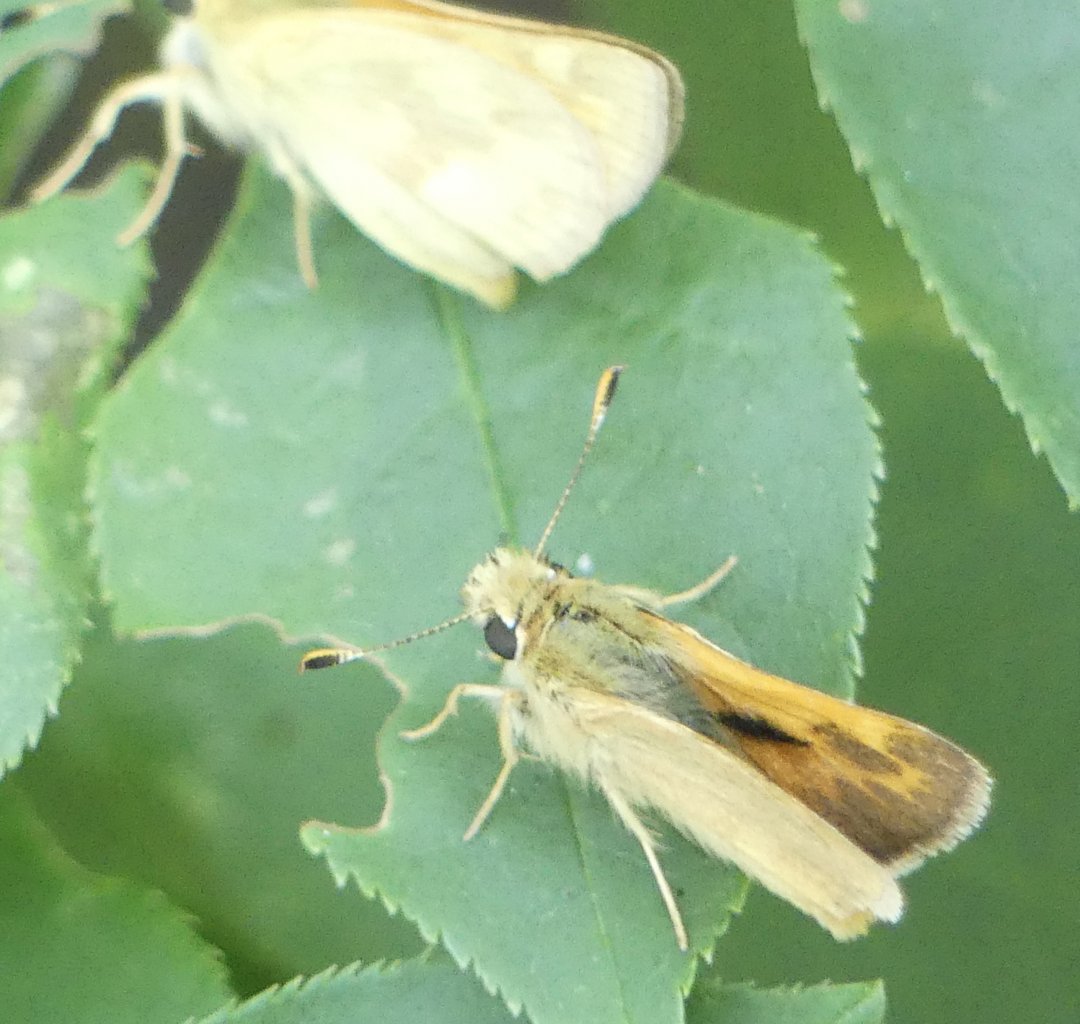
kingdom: Animalia
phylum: Arthropoda
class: Insecta
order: Lepidoptera
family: Hesperiidae
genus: Ochlodes
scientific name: Ochlodes sylvanoides
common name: Woodland Skipper
